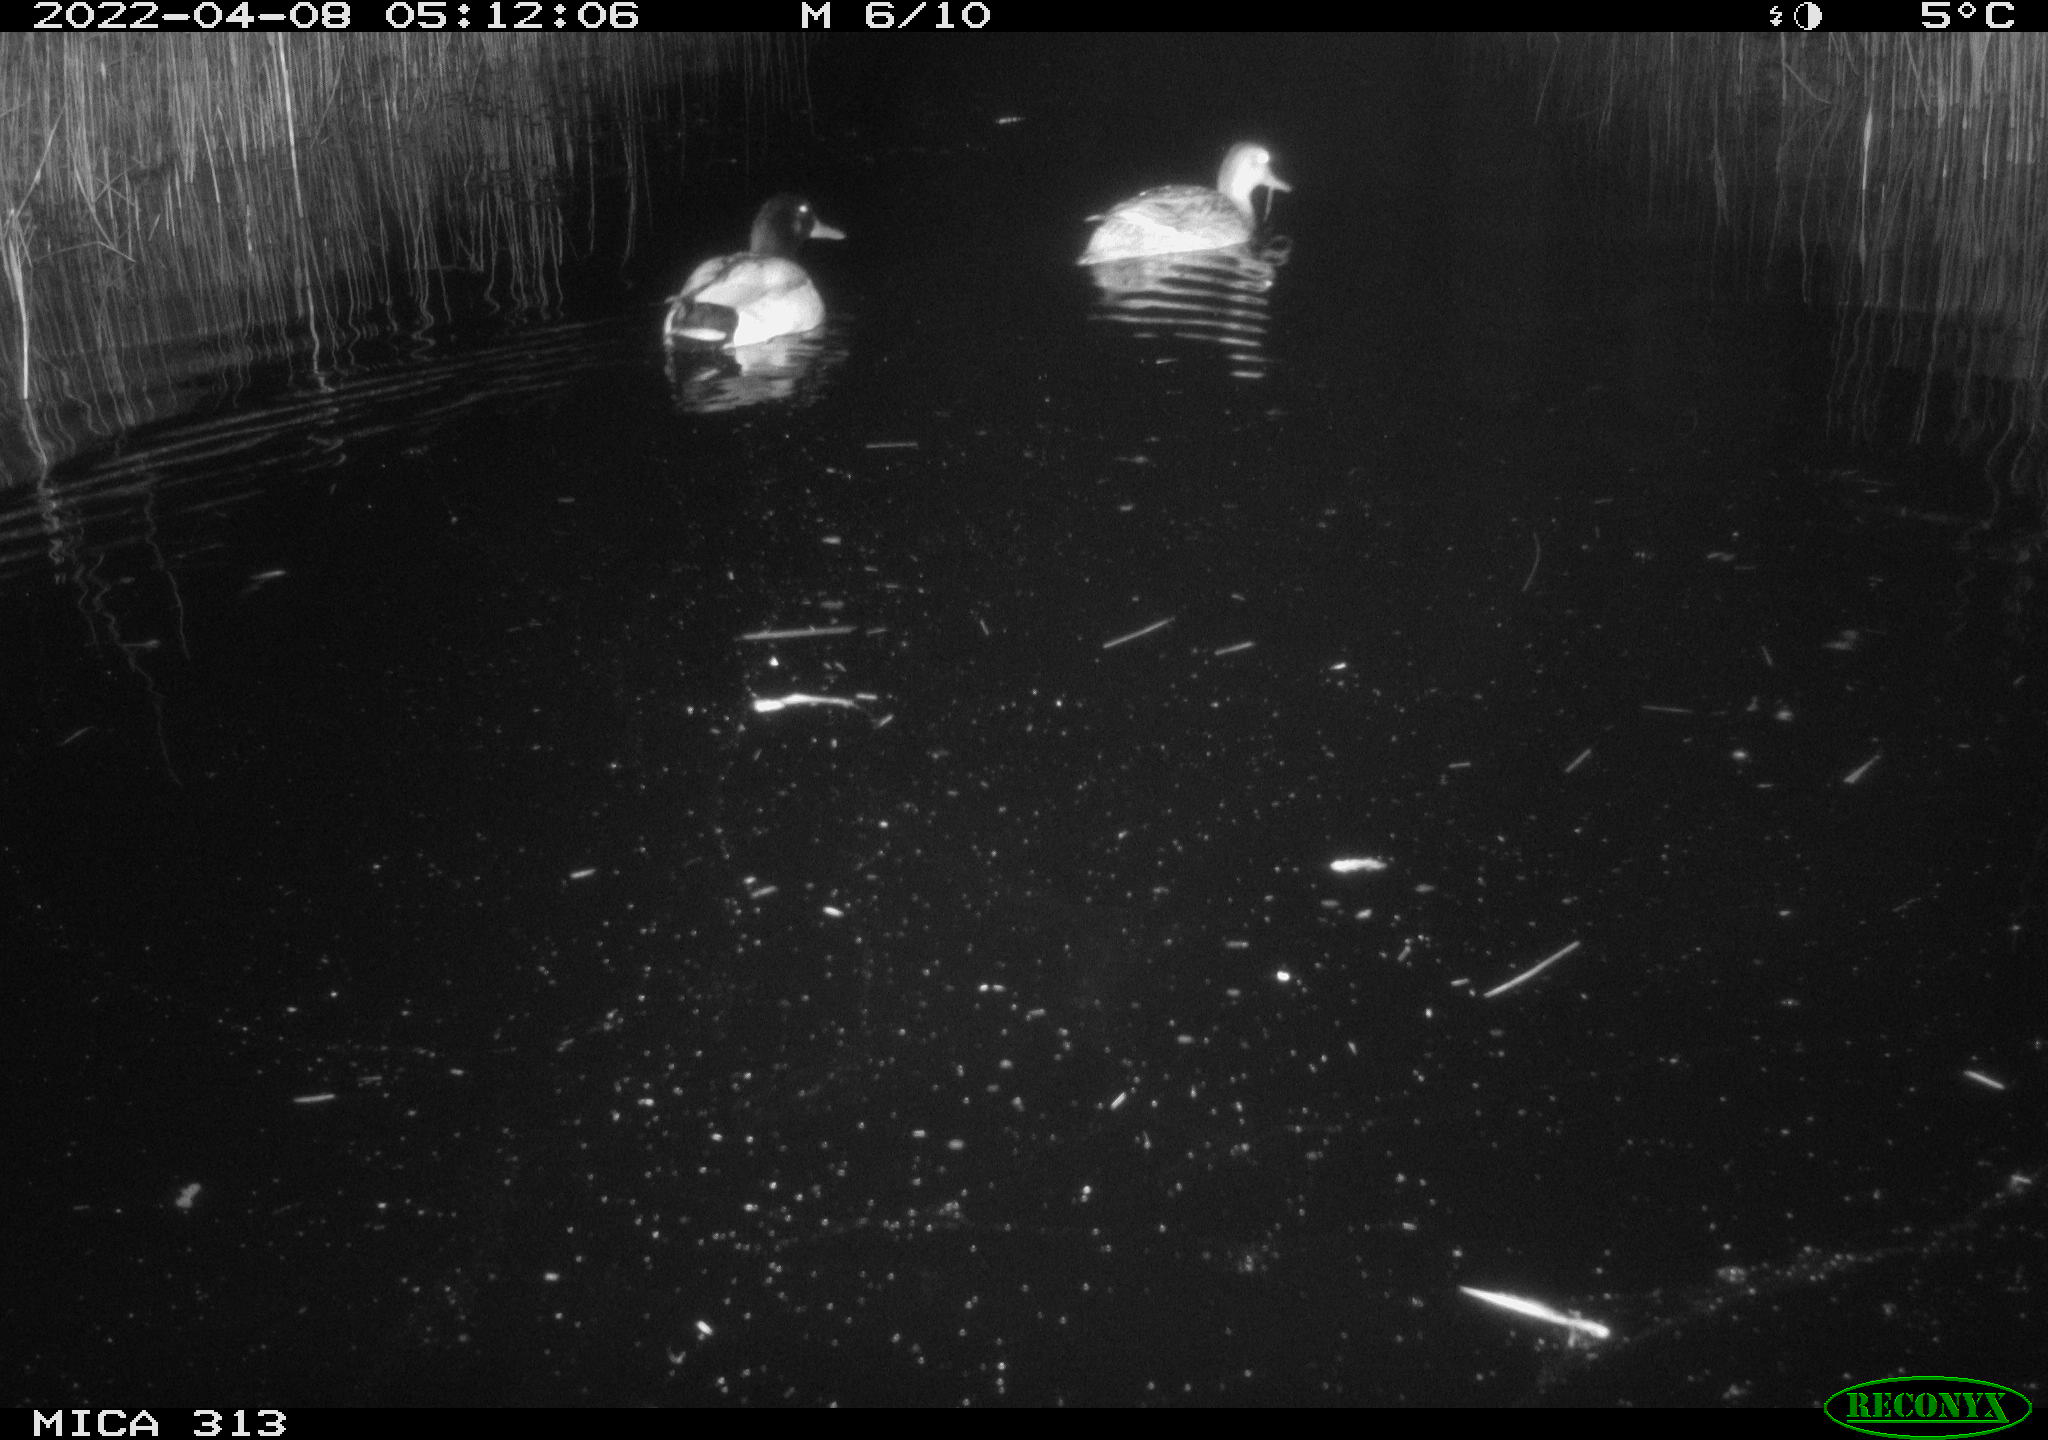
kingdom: Animalia
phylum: Chordata
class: Aves
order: Anseriformes
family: Anatidae
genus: Anas
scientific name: Anas platyrhynchos
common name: Mallard
